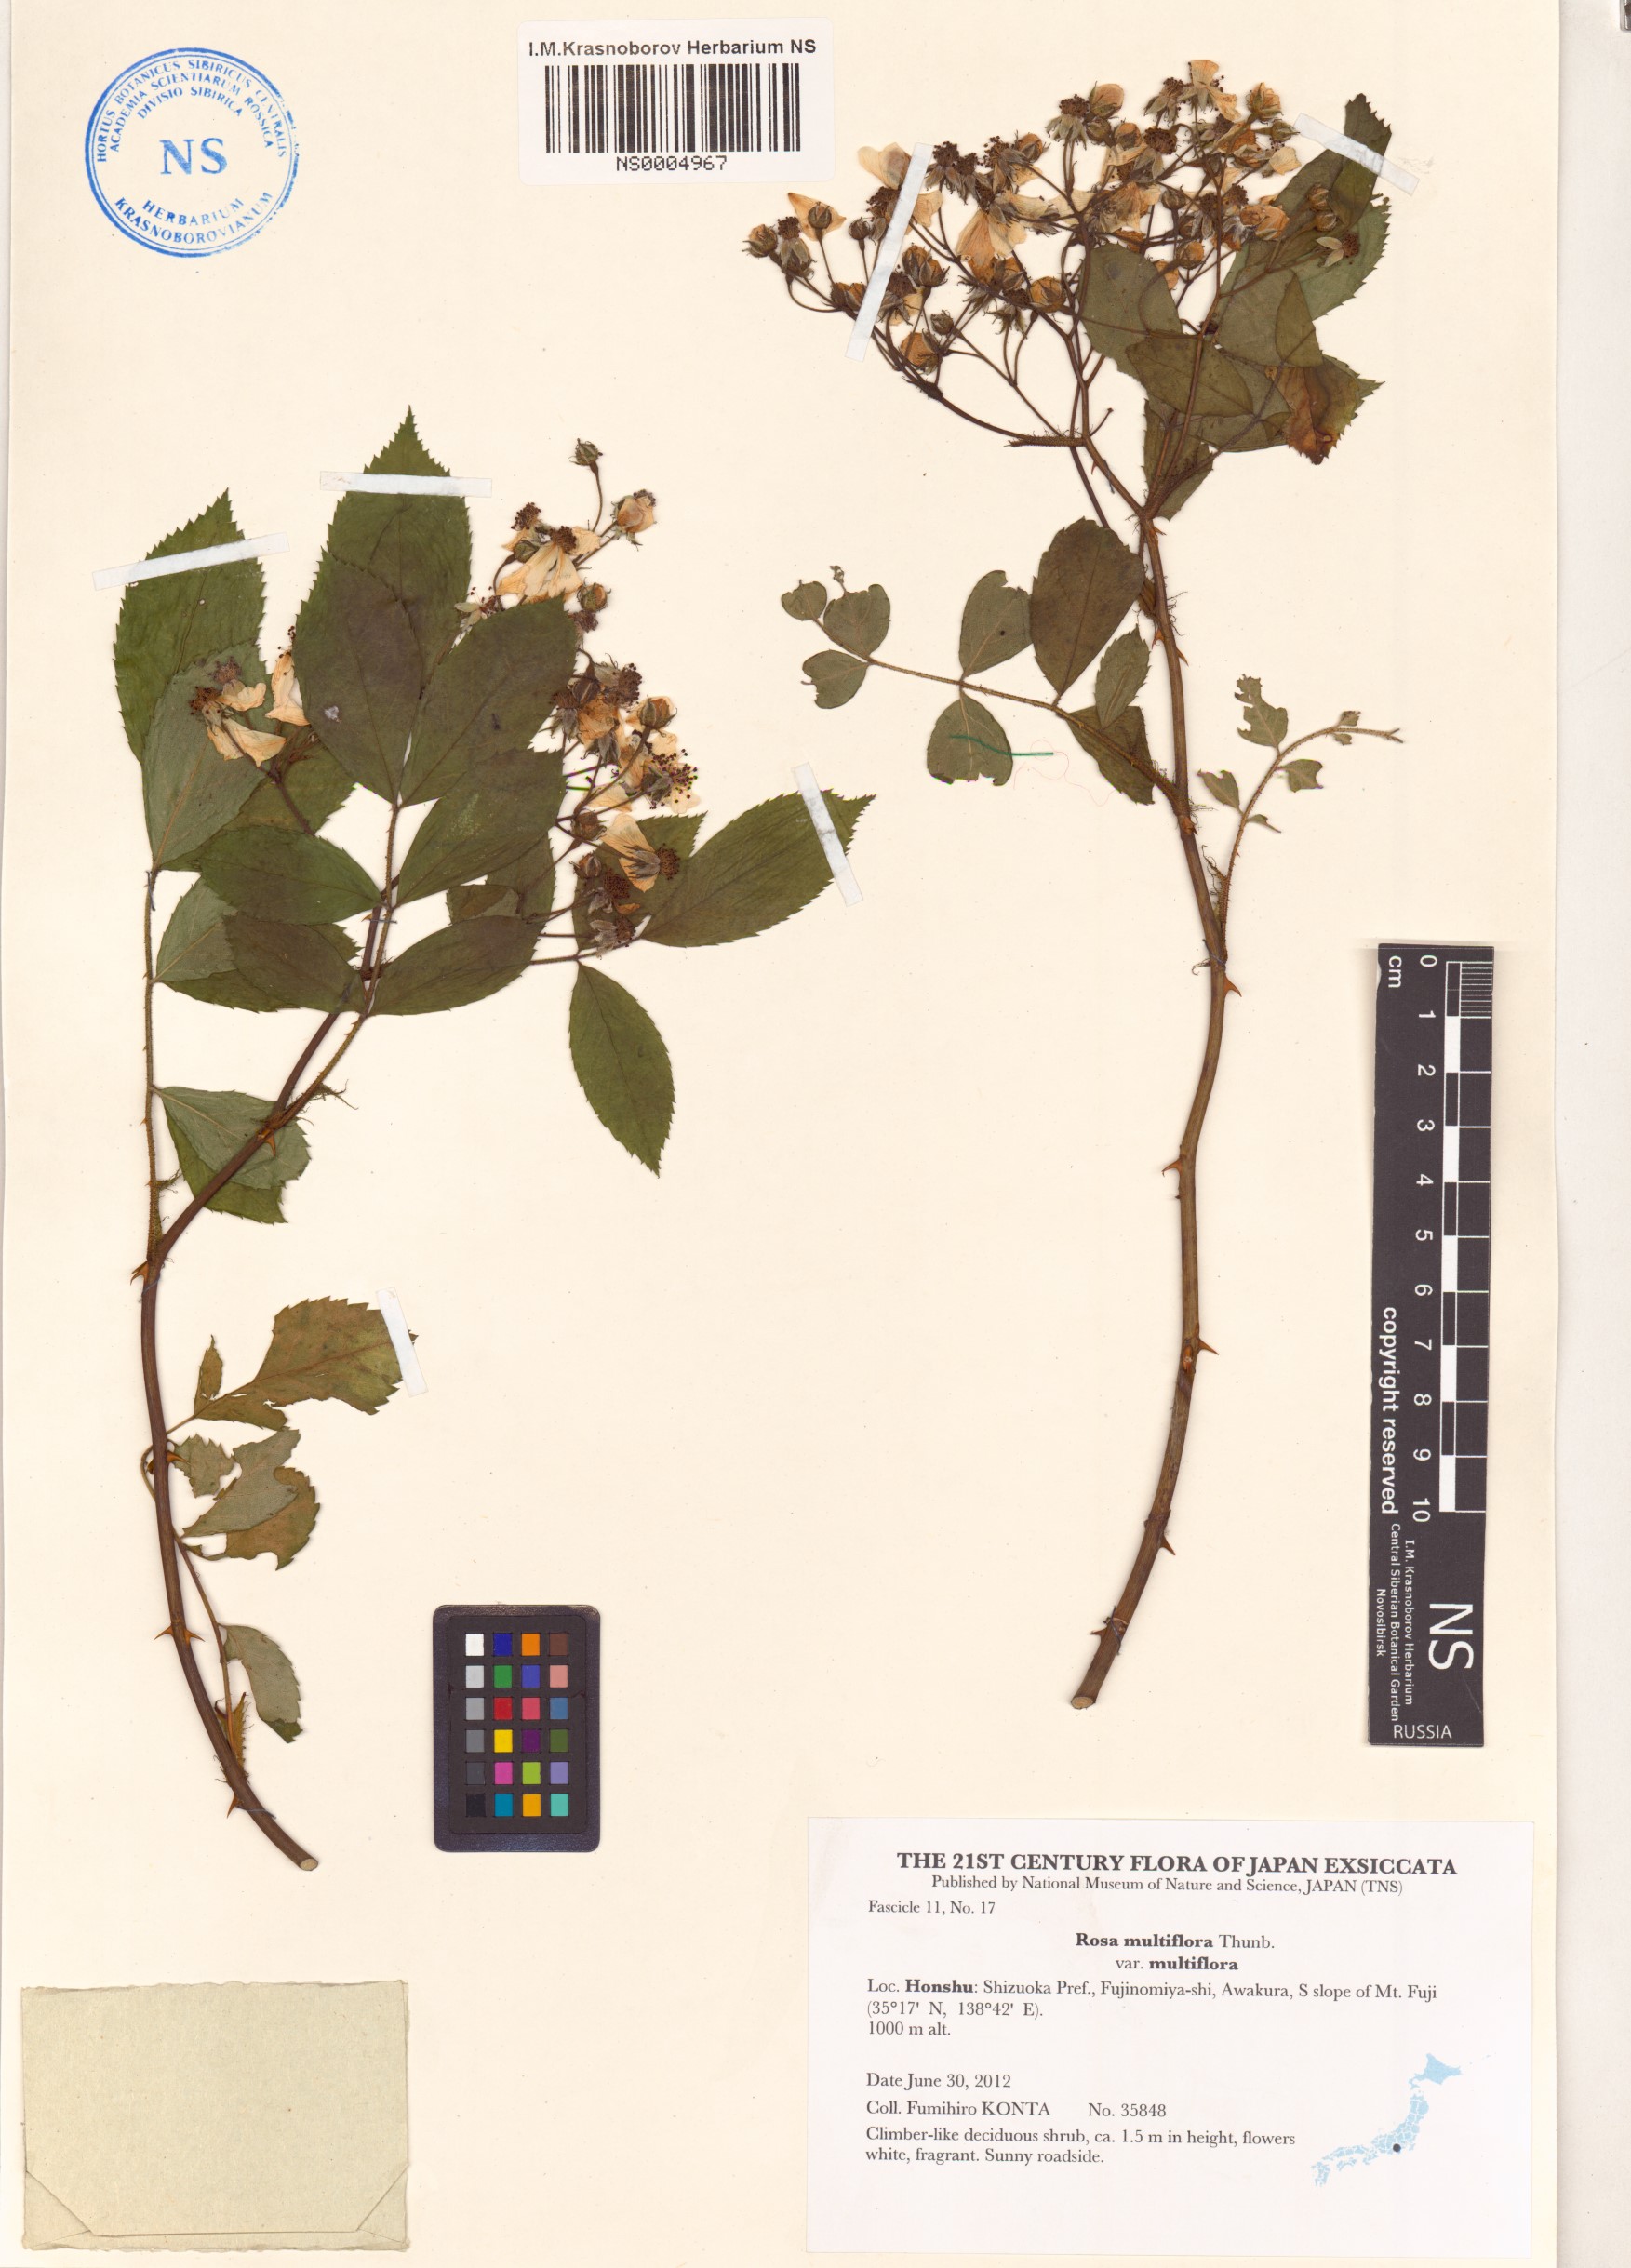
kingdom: Plantae
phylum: Tracheophyta
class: Magnoliopsida
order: Rosales
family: Rosaceae
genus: Rosa
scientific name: Rosa multiflora
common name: Multiflora rose
